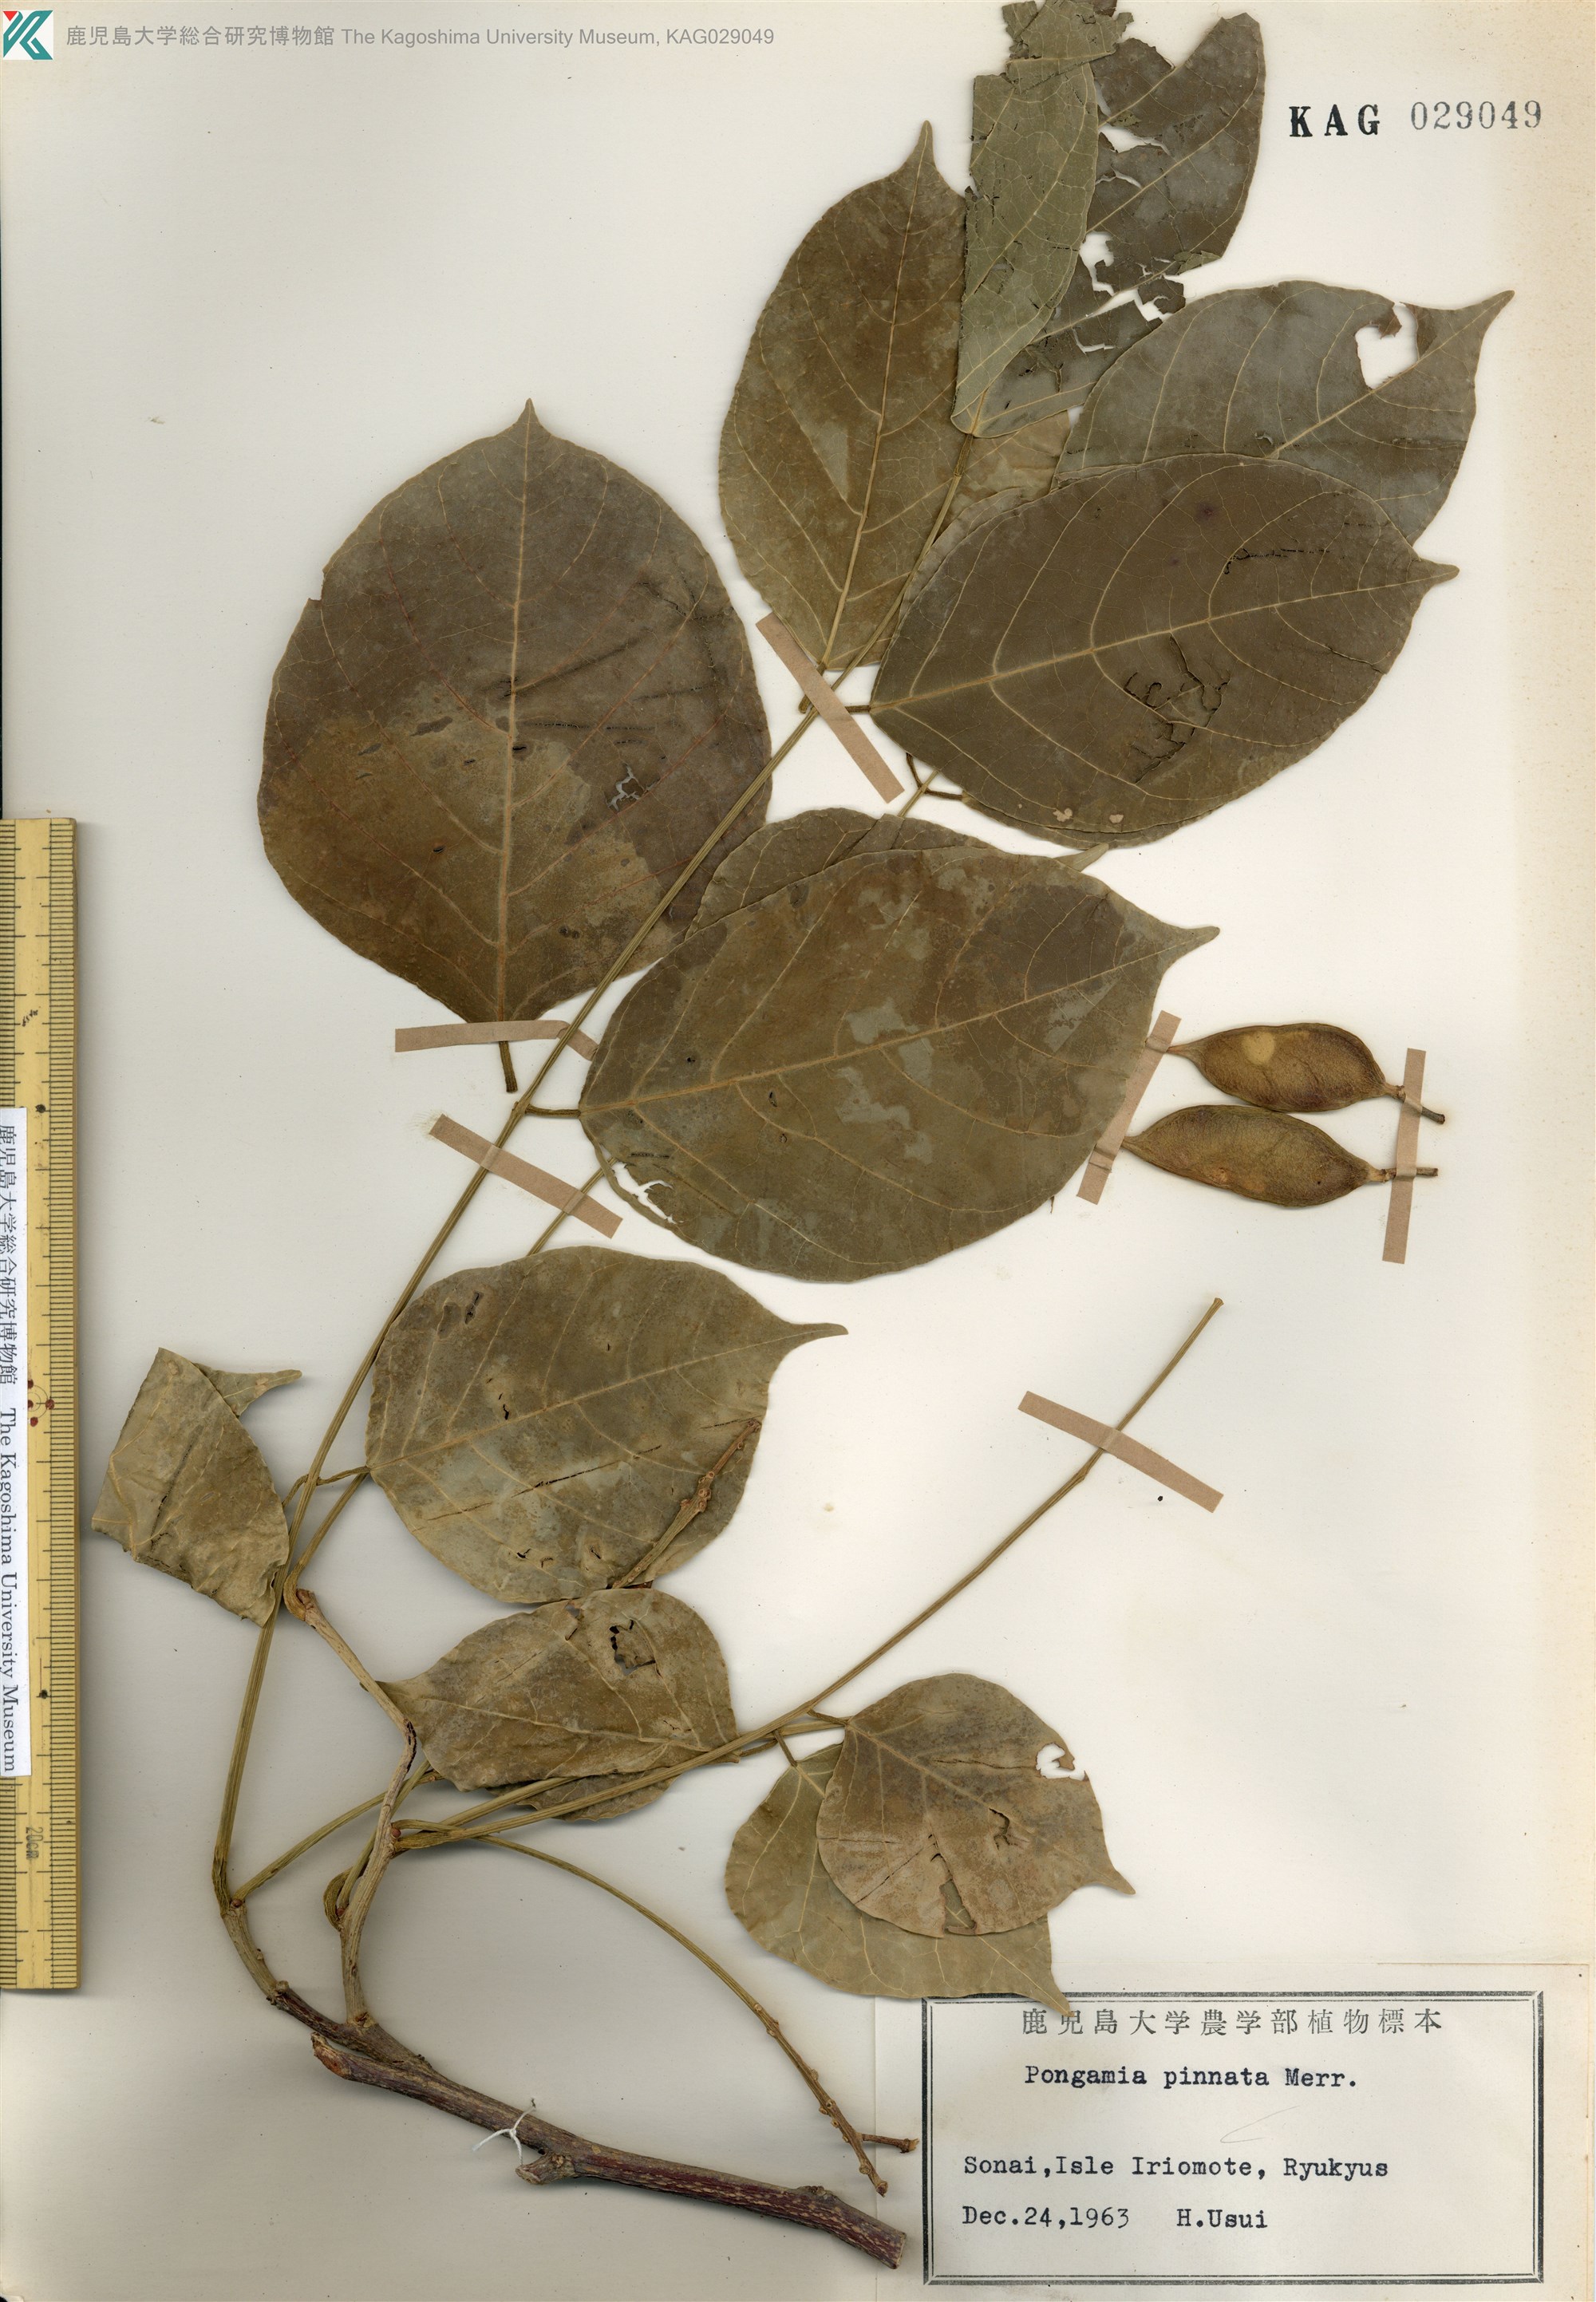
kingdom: Plantae
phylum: Tracheophyta
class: Magnoliopsida
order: Fabales
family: Fabaceae
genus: Pongamia
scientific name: Pongamia pinnata
